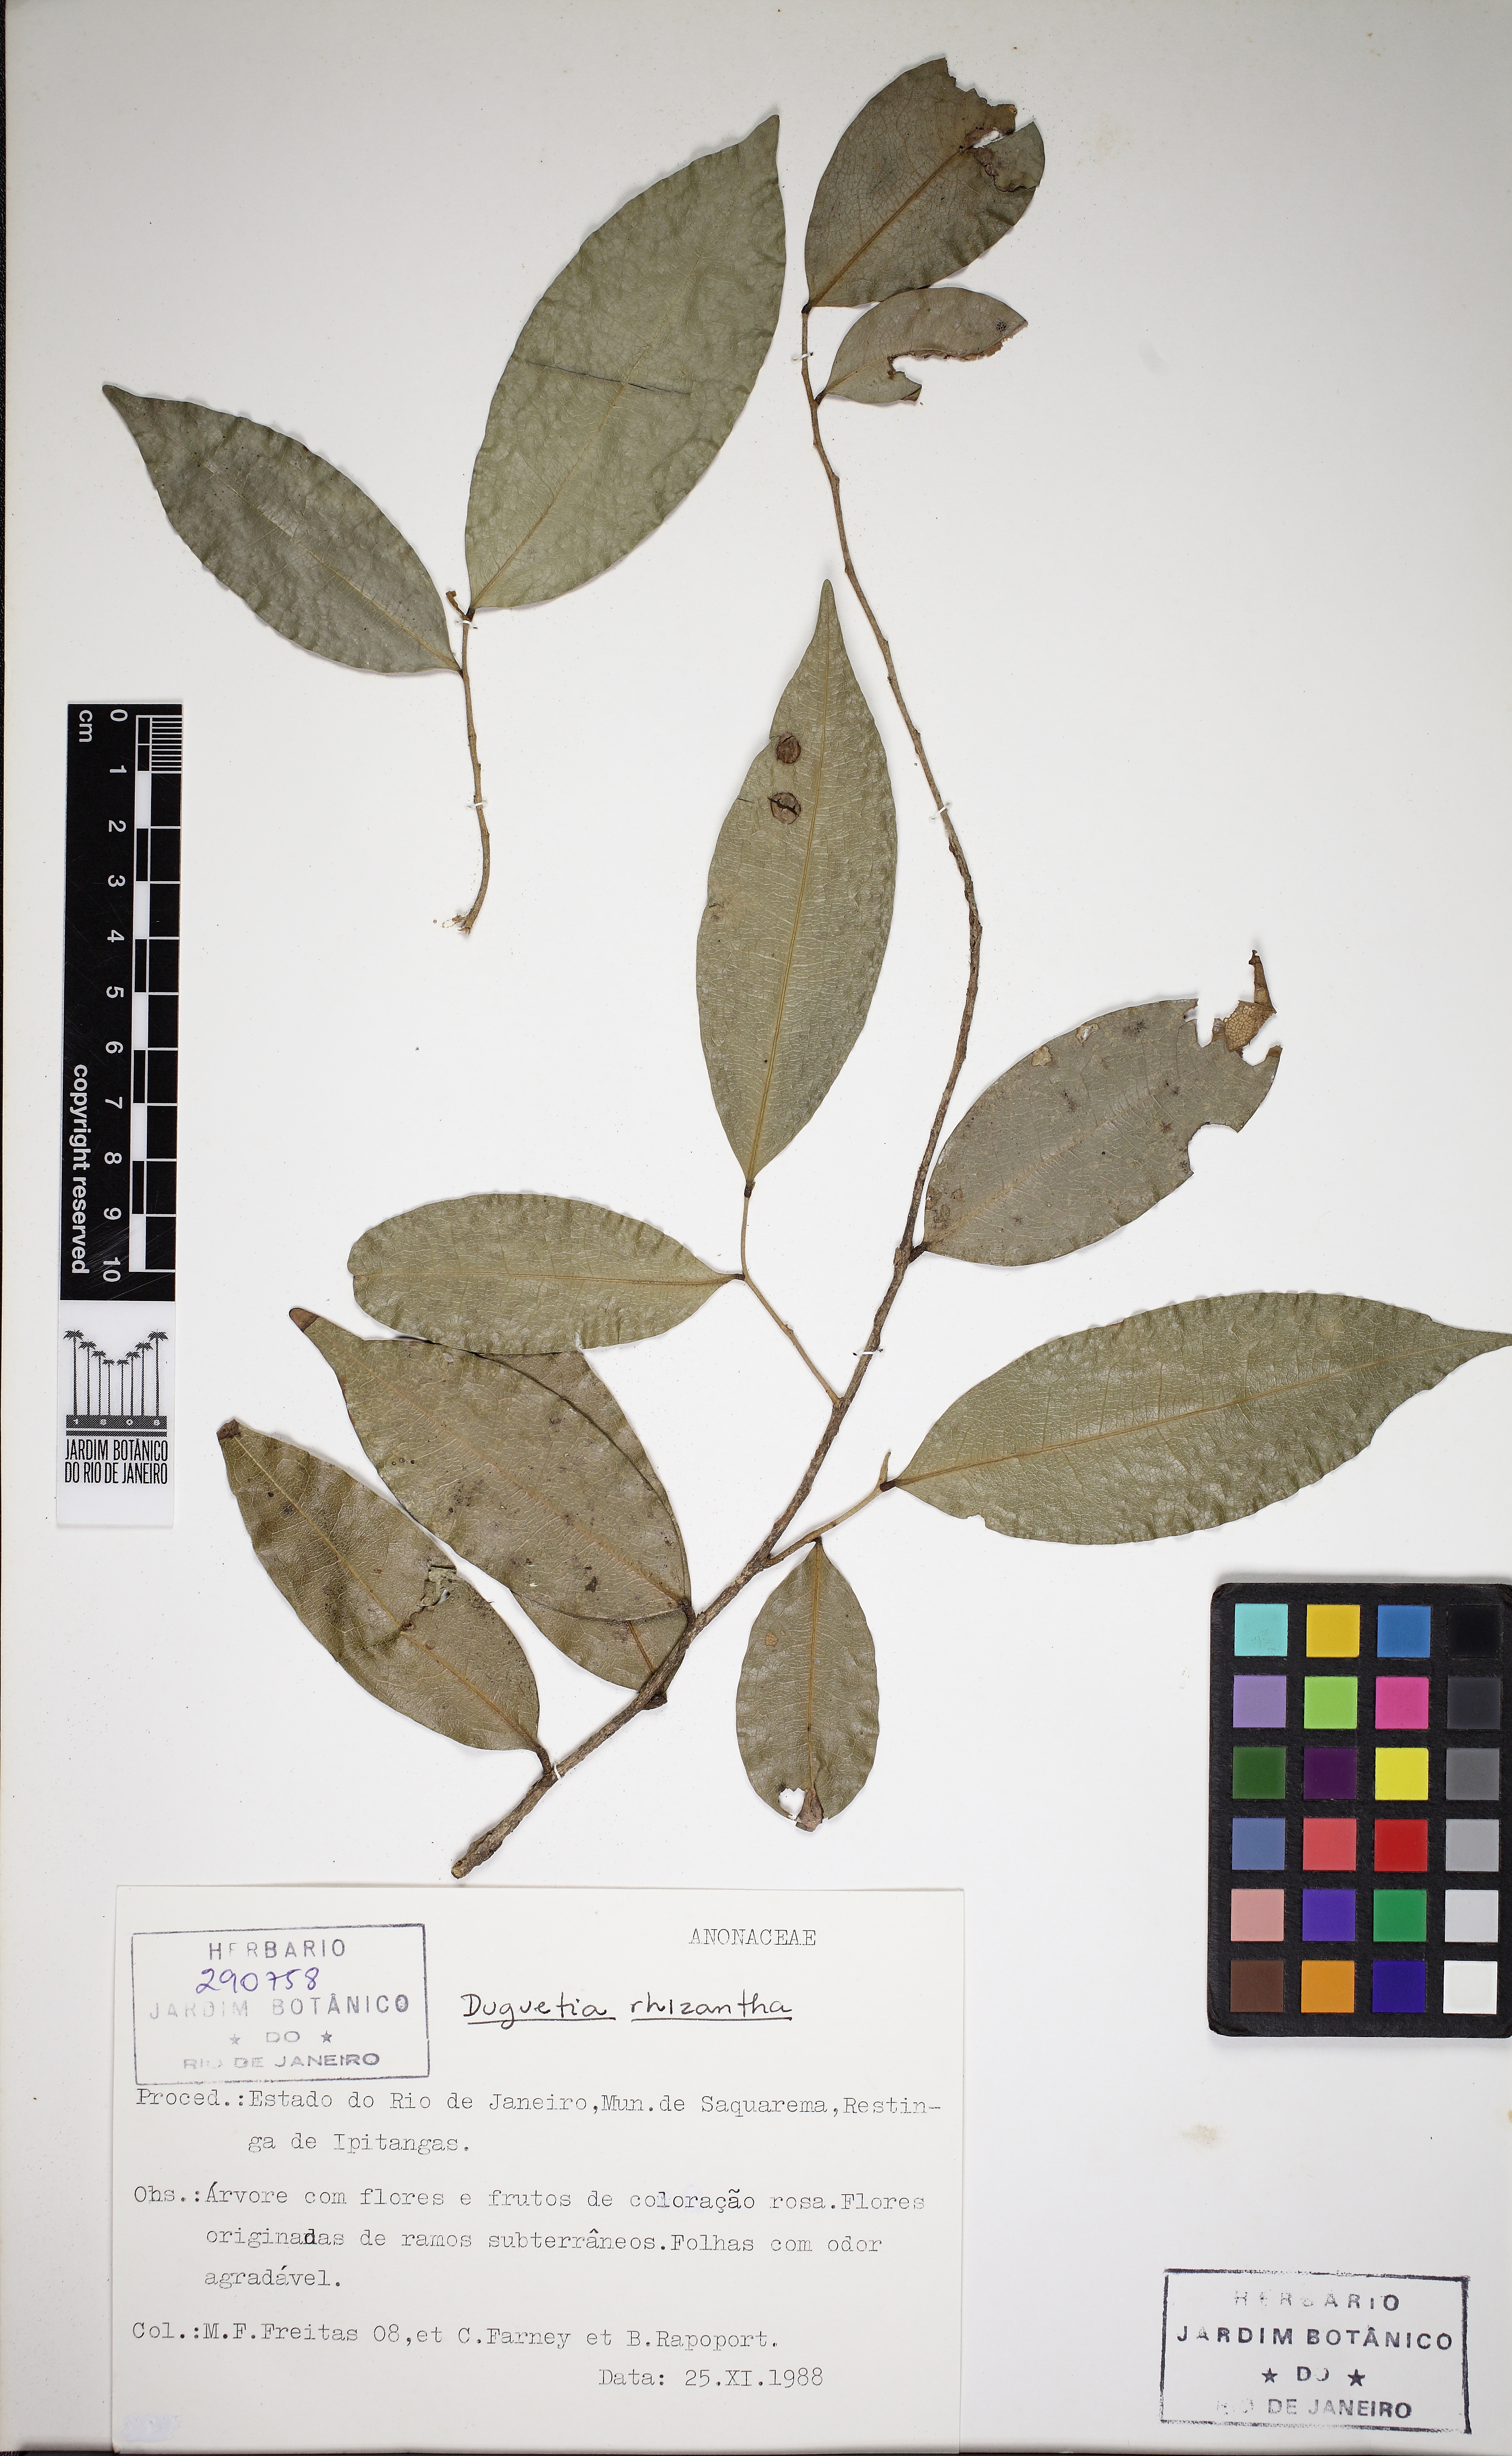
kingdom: Plantae
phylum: Tracheophyta
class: Magnoliopsida
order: Magnoliales
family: Annonaceae
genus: Duguetia
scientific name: Duguetia sessilis
